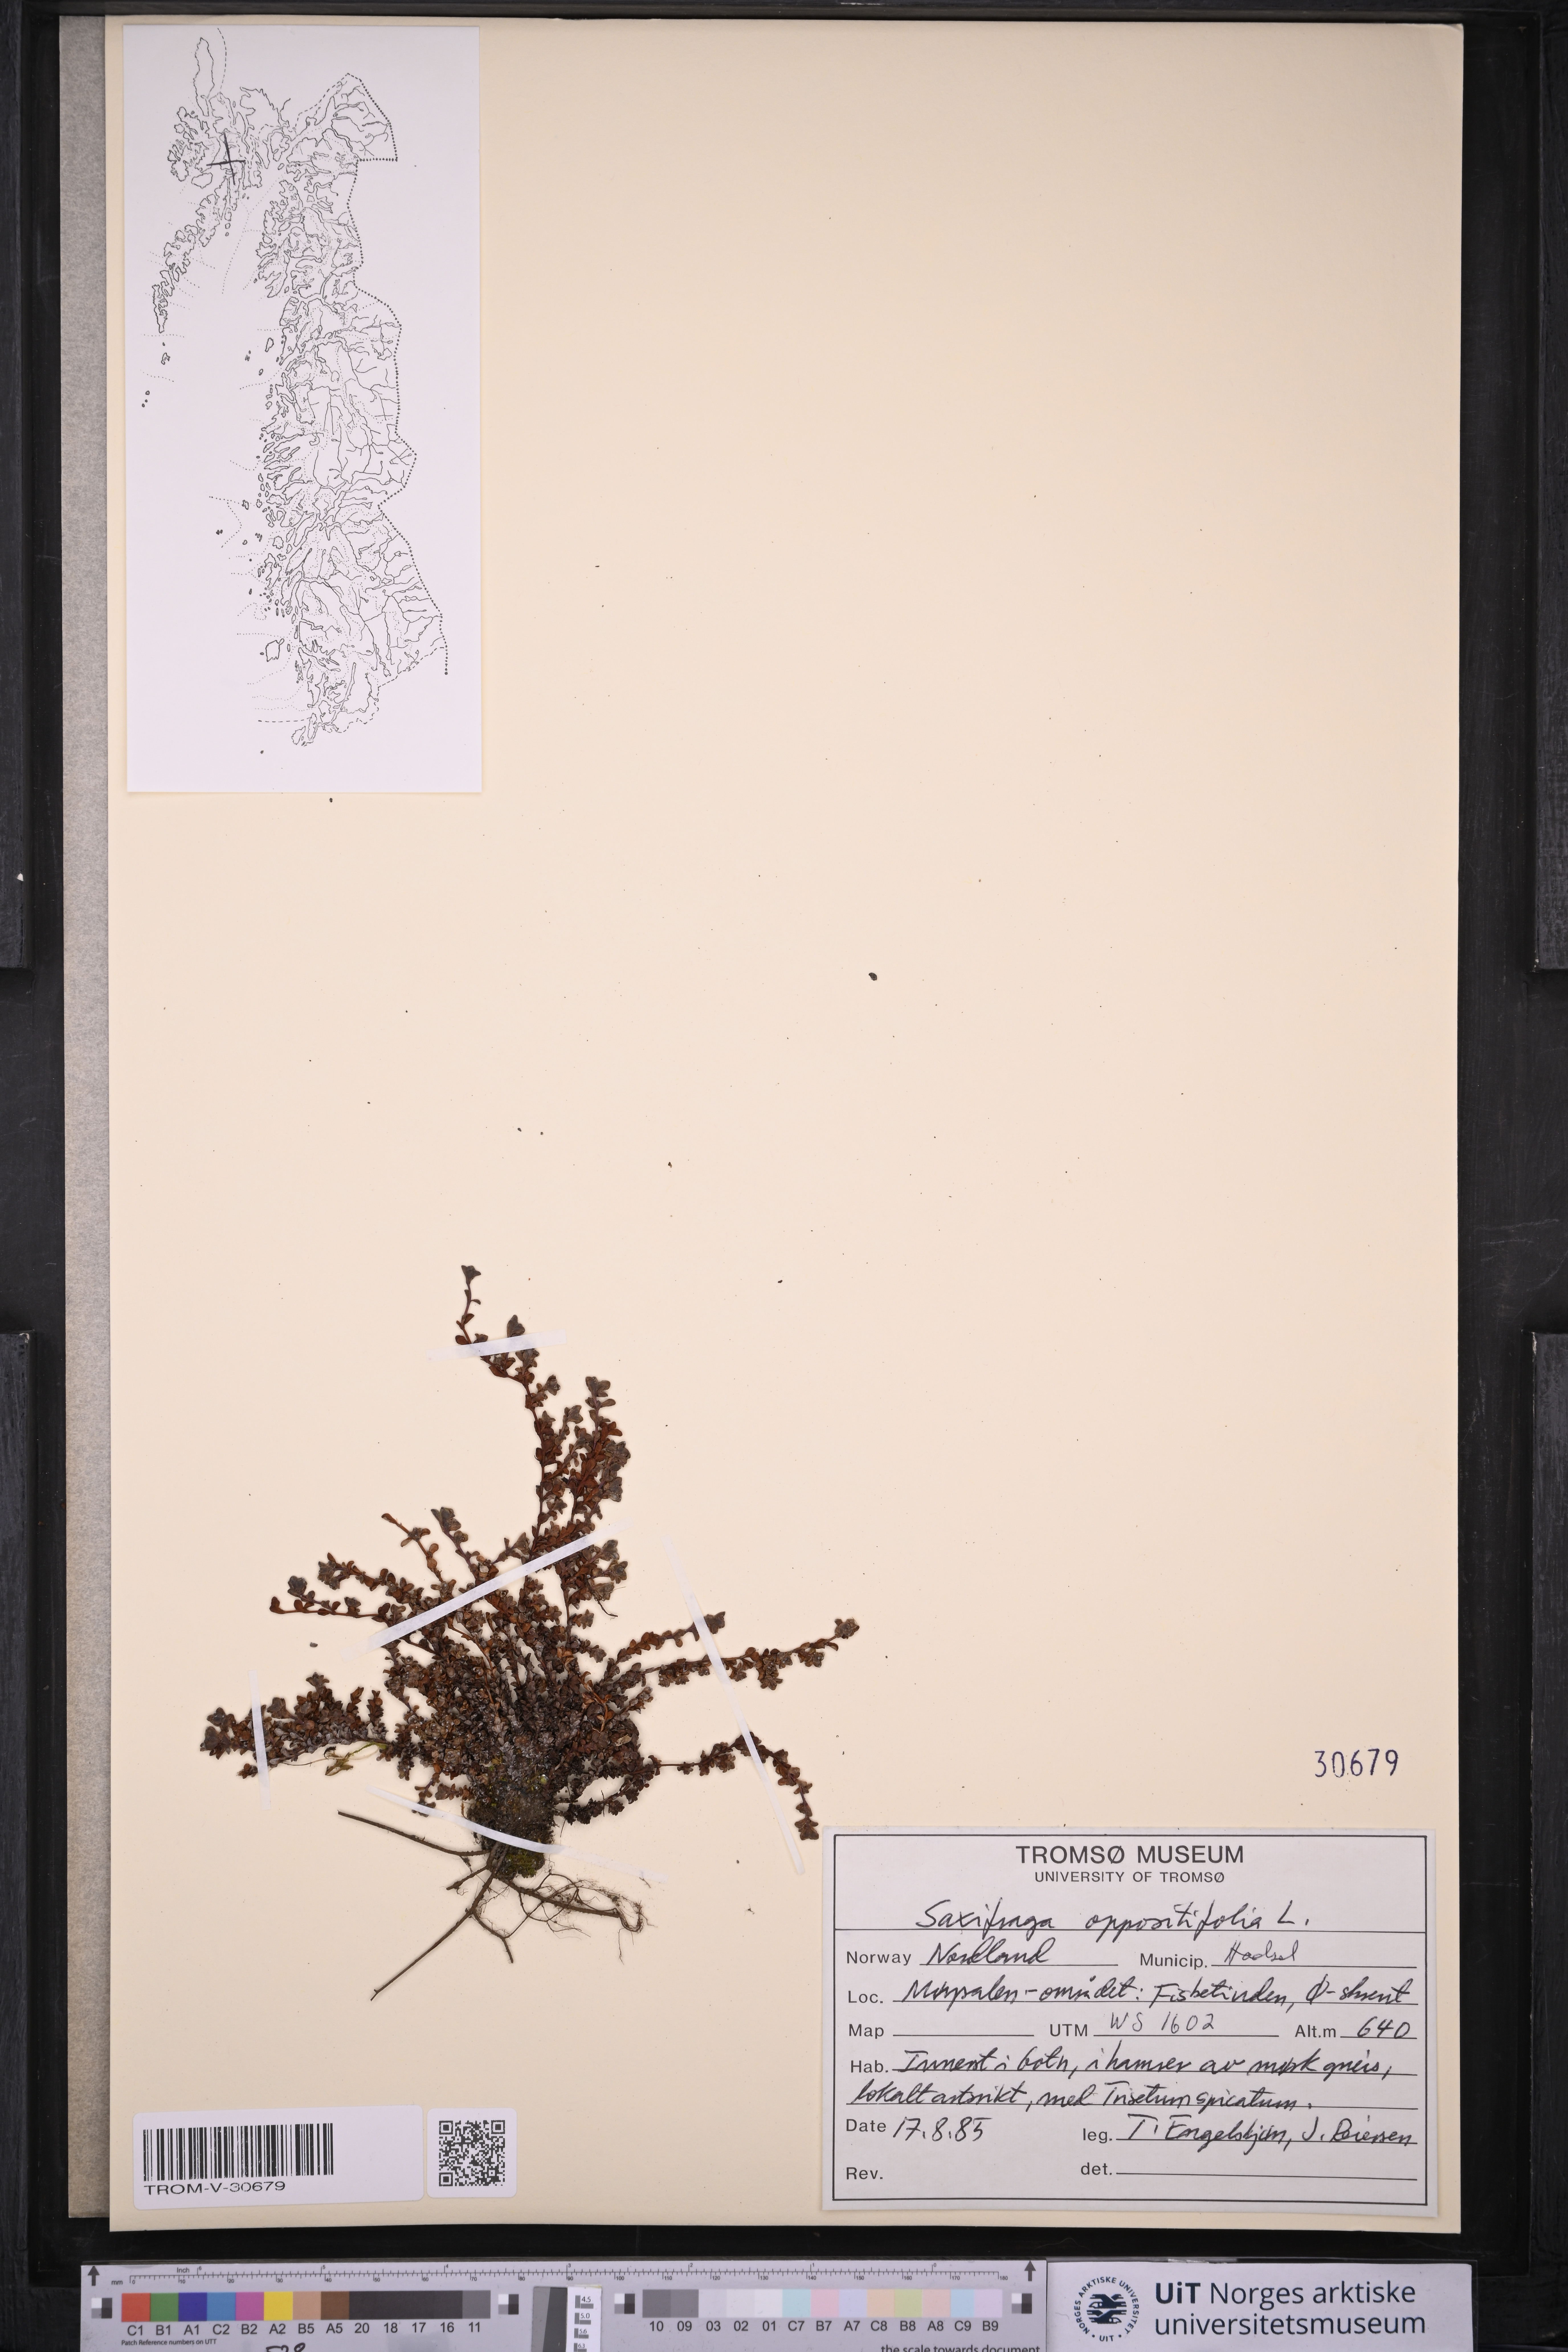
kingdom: Plantae
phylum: Tracheophyta
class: Magnoliopsida
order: Saxifragales
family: Saxifragaceae
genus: Saxifraga
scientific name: Saxifraga oppositifolia
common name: Purple saxifrage
